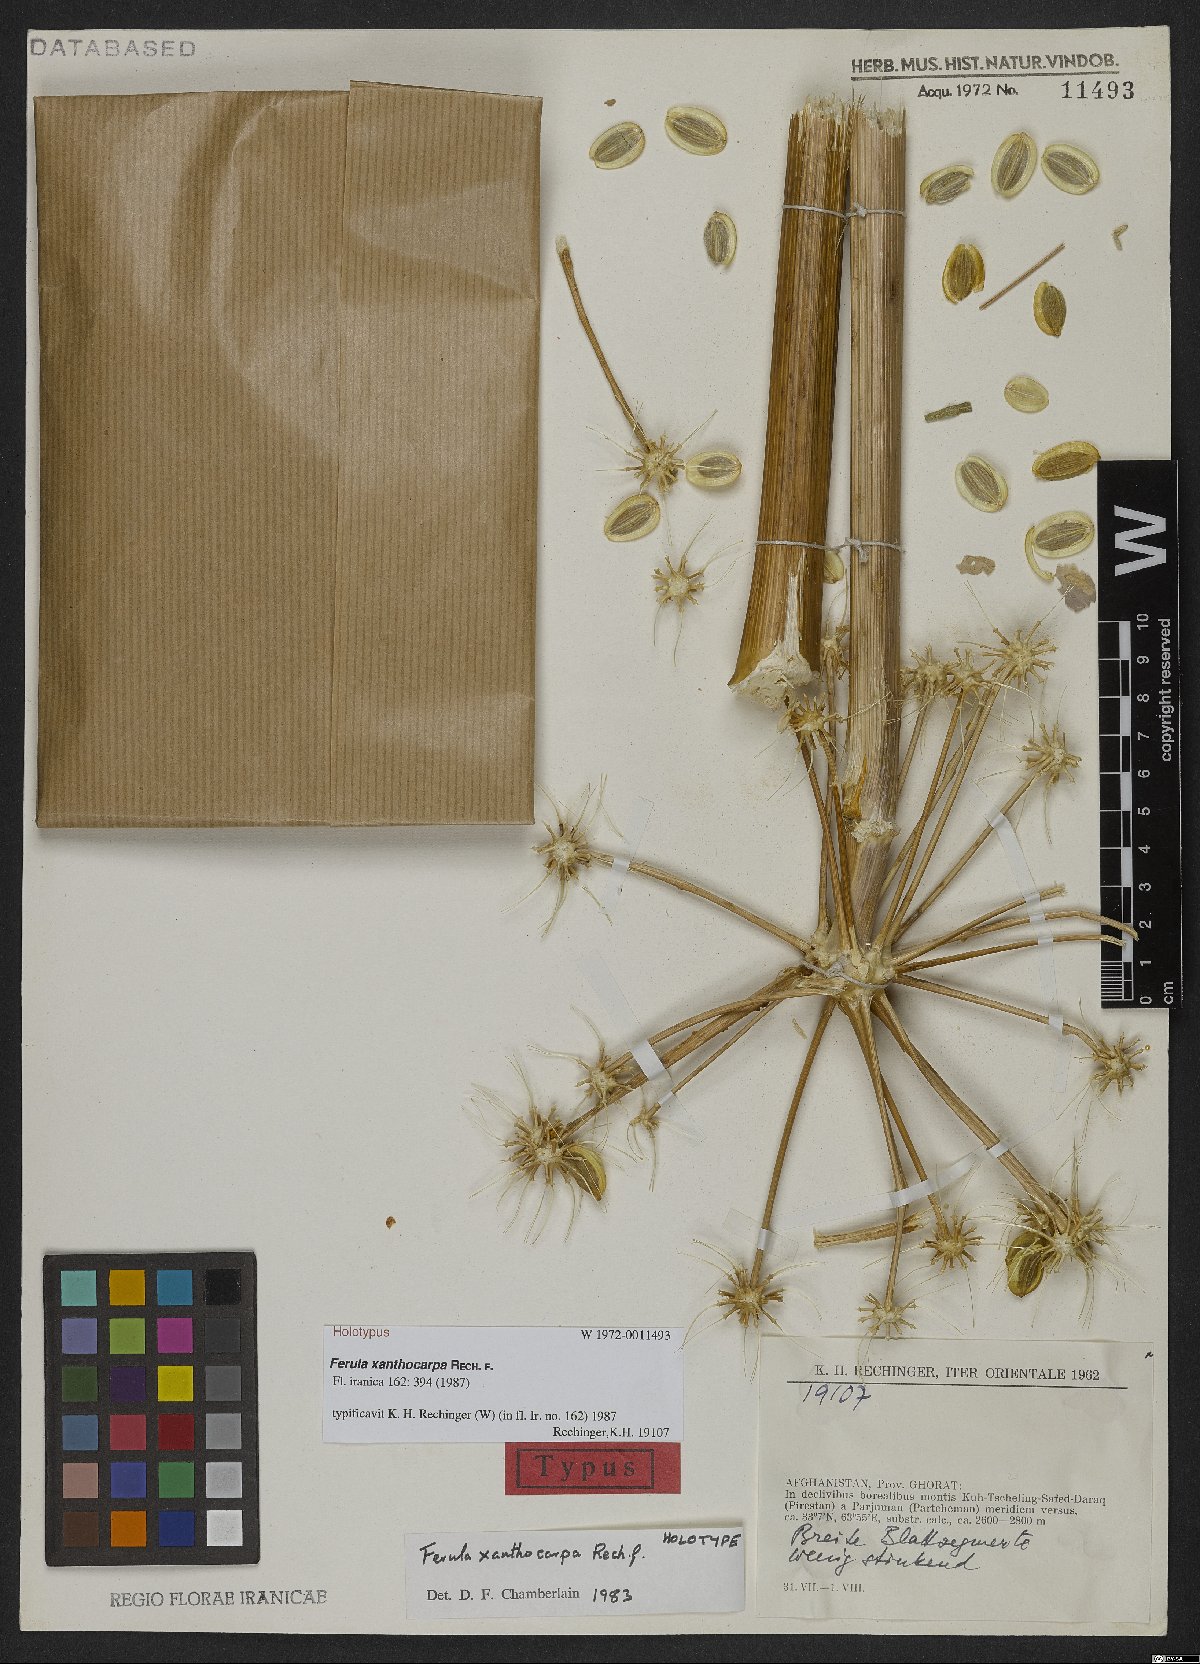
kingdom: Plantae
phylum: Tracheophyta
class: Magnoliopsida
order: Apiales
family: Apiaceae
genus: Ferula
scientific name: Ferula xanthocarpa
